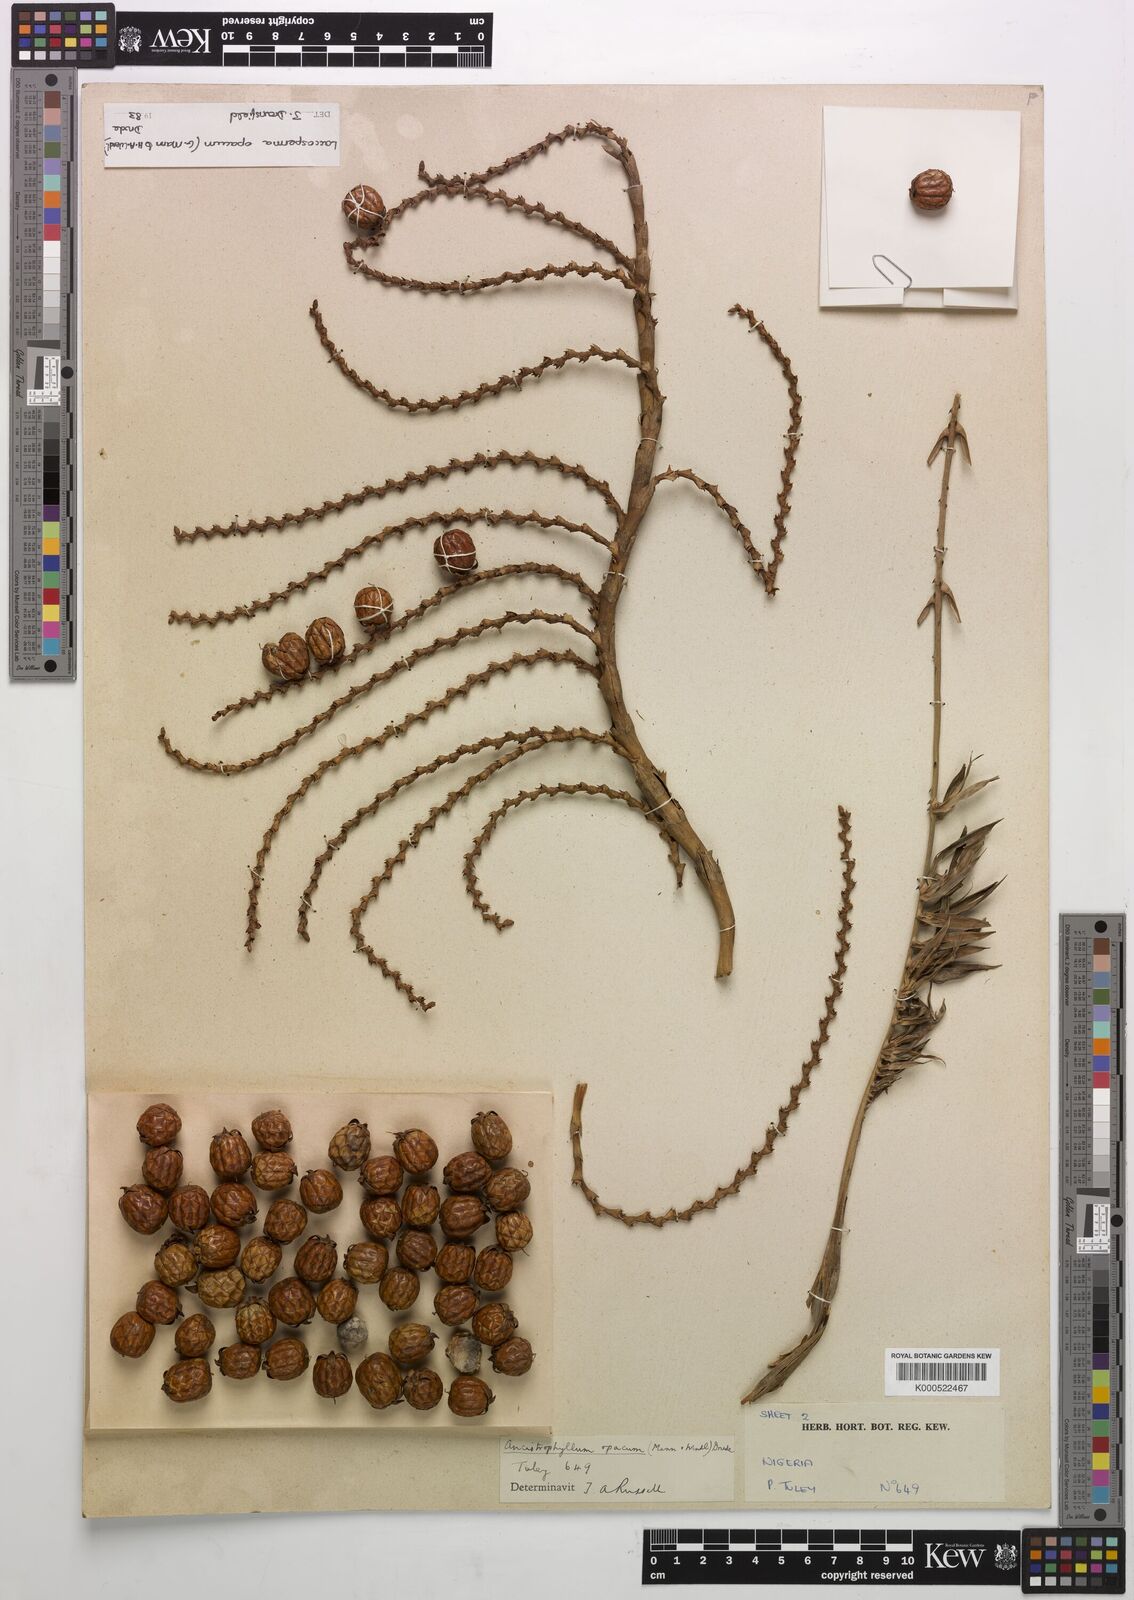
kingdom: Plantae
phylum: Tracheophyta
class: Liliopsida
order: Arecales
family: Arecaceae
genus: Laccosperma
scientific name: Laccosperma opacum
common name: Rattan
